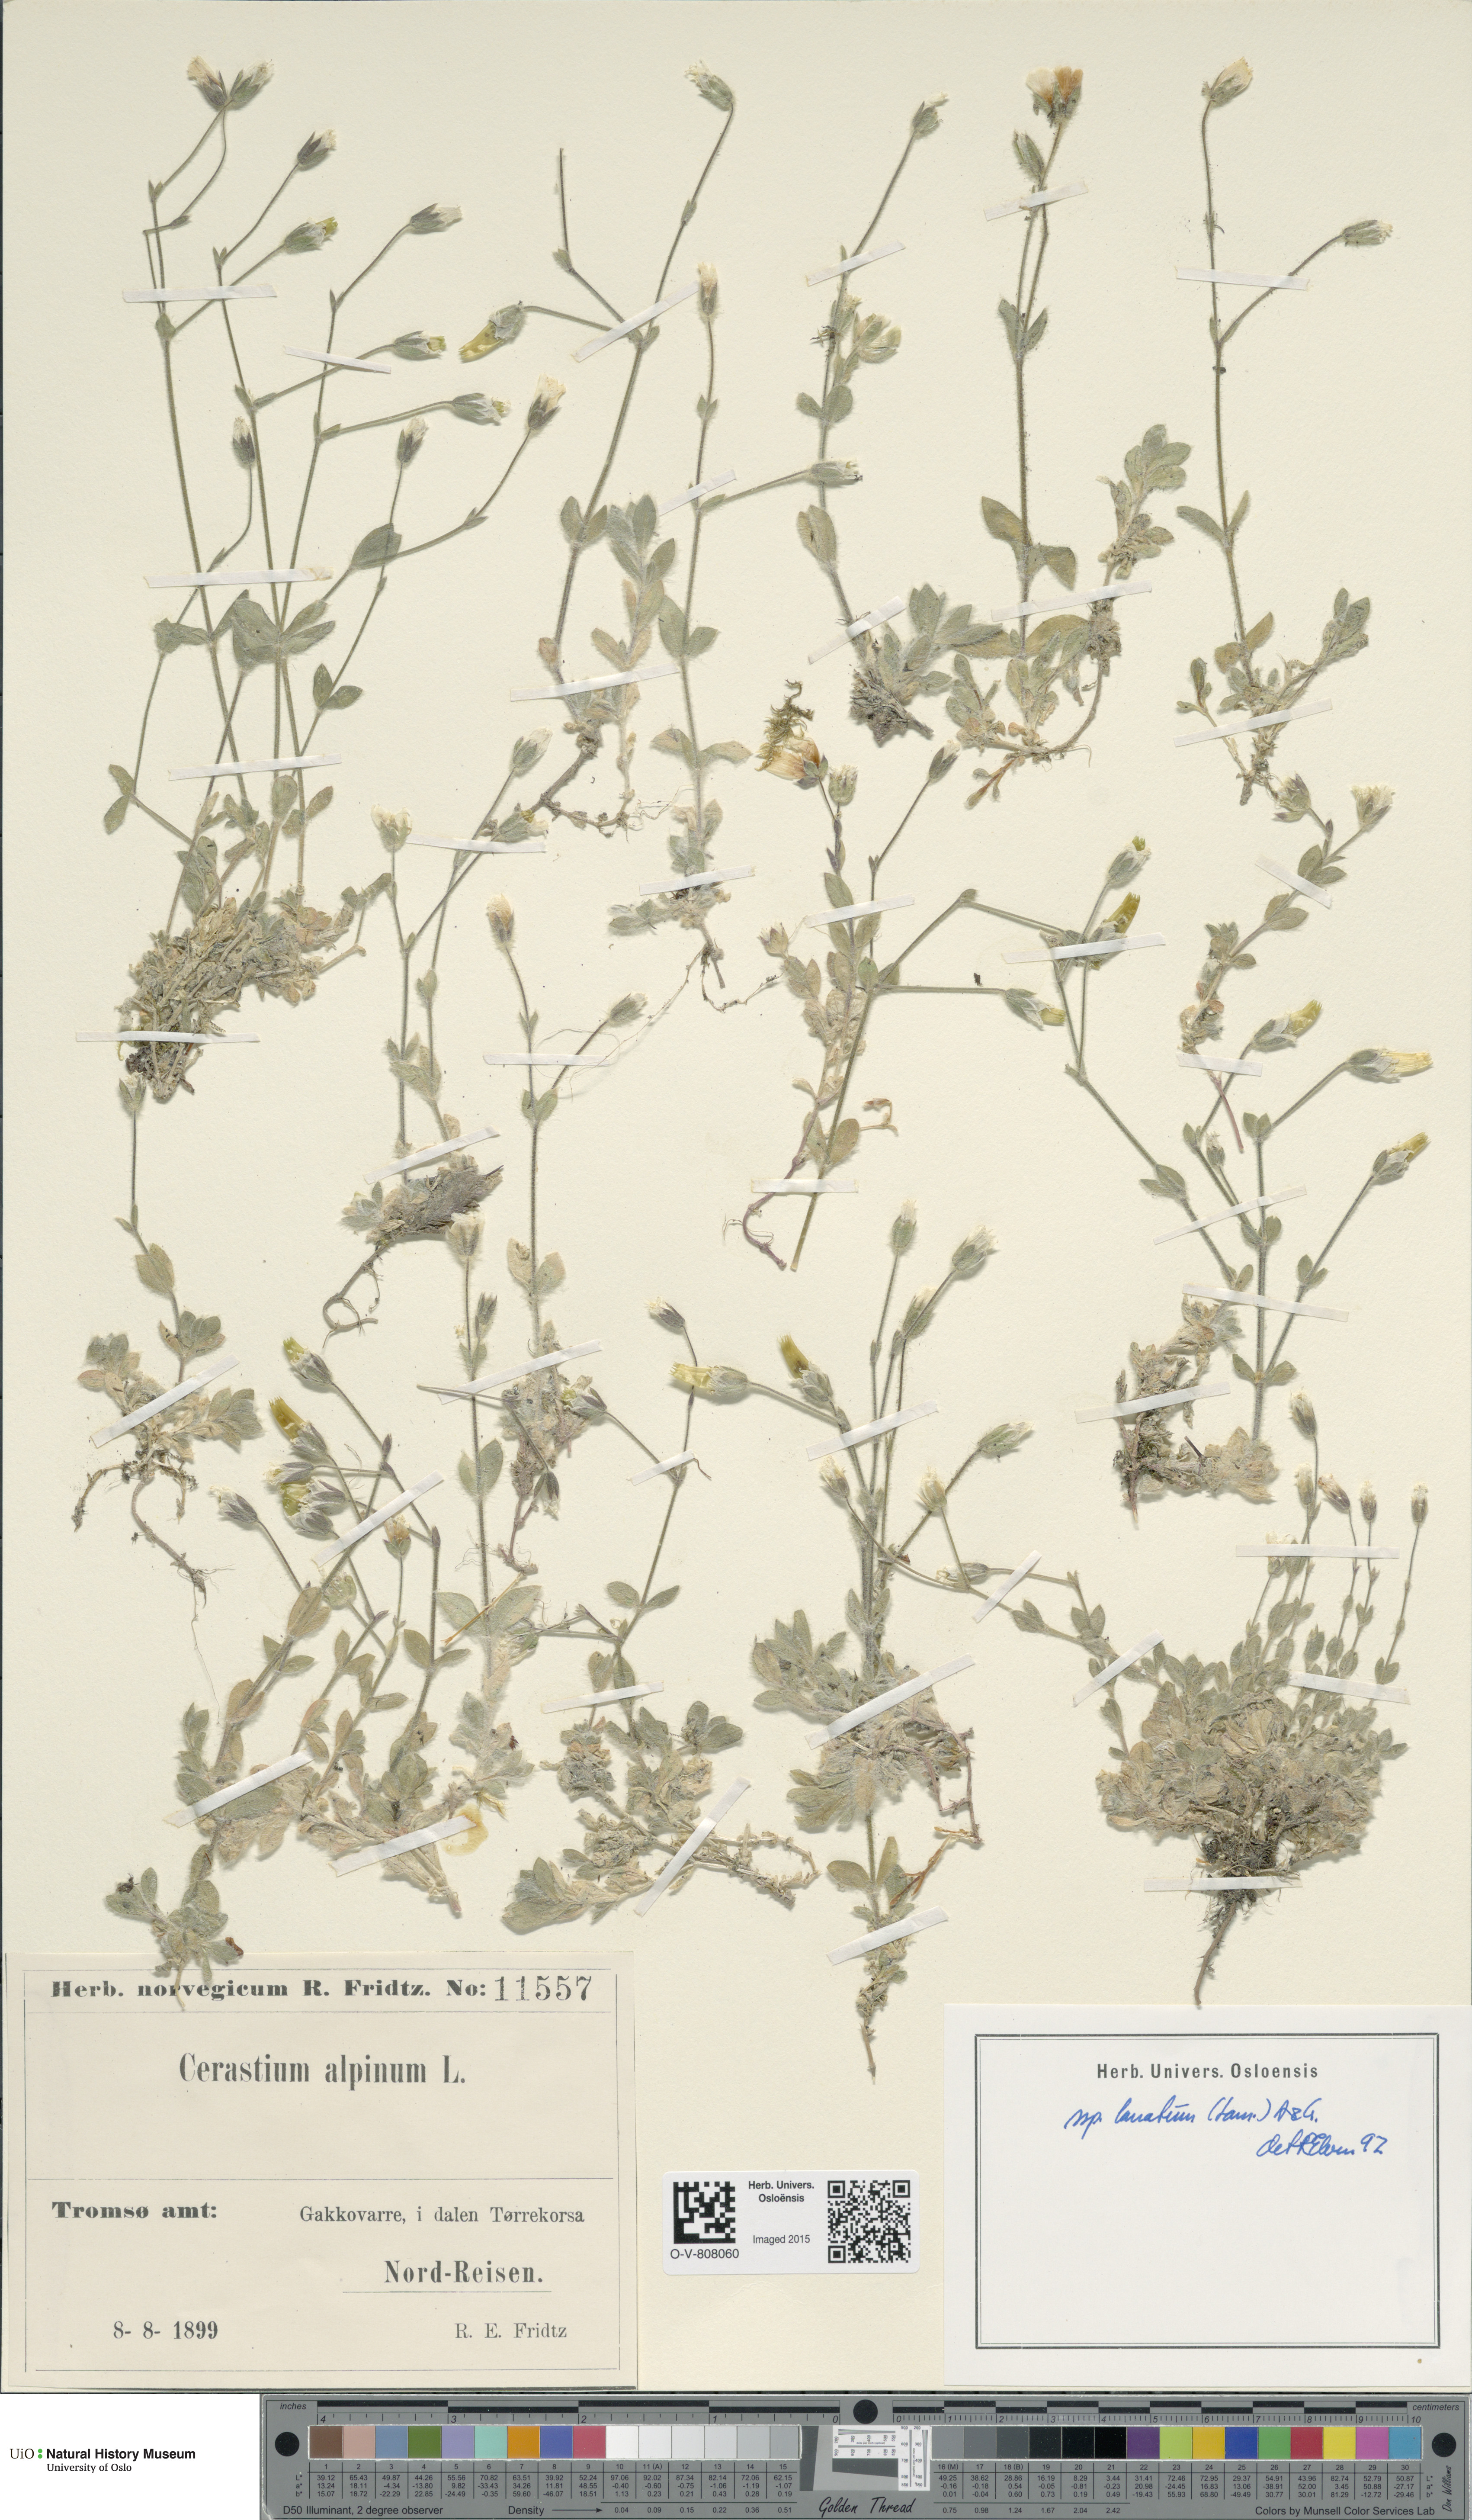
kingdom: Plantae
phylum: Tracheophyta
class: Magnoliopsida
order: Caryophyllales
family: Caryophyllaceae
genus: Cerastium
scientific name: Cerastium alpinum
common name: Alpine mouse-ear
